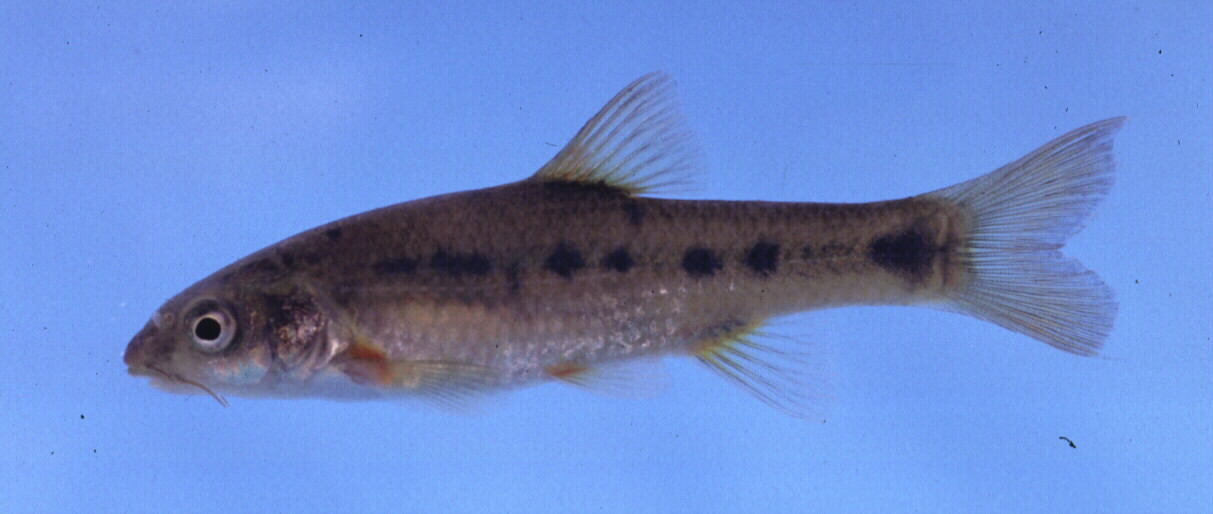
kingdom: Animalia
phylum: Chordata
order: Cypriniformes
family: Cyprinidae
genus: Pseudobarbus
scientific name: Pseudobarbus burchelli
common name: Burchell's redfin
